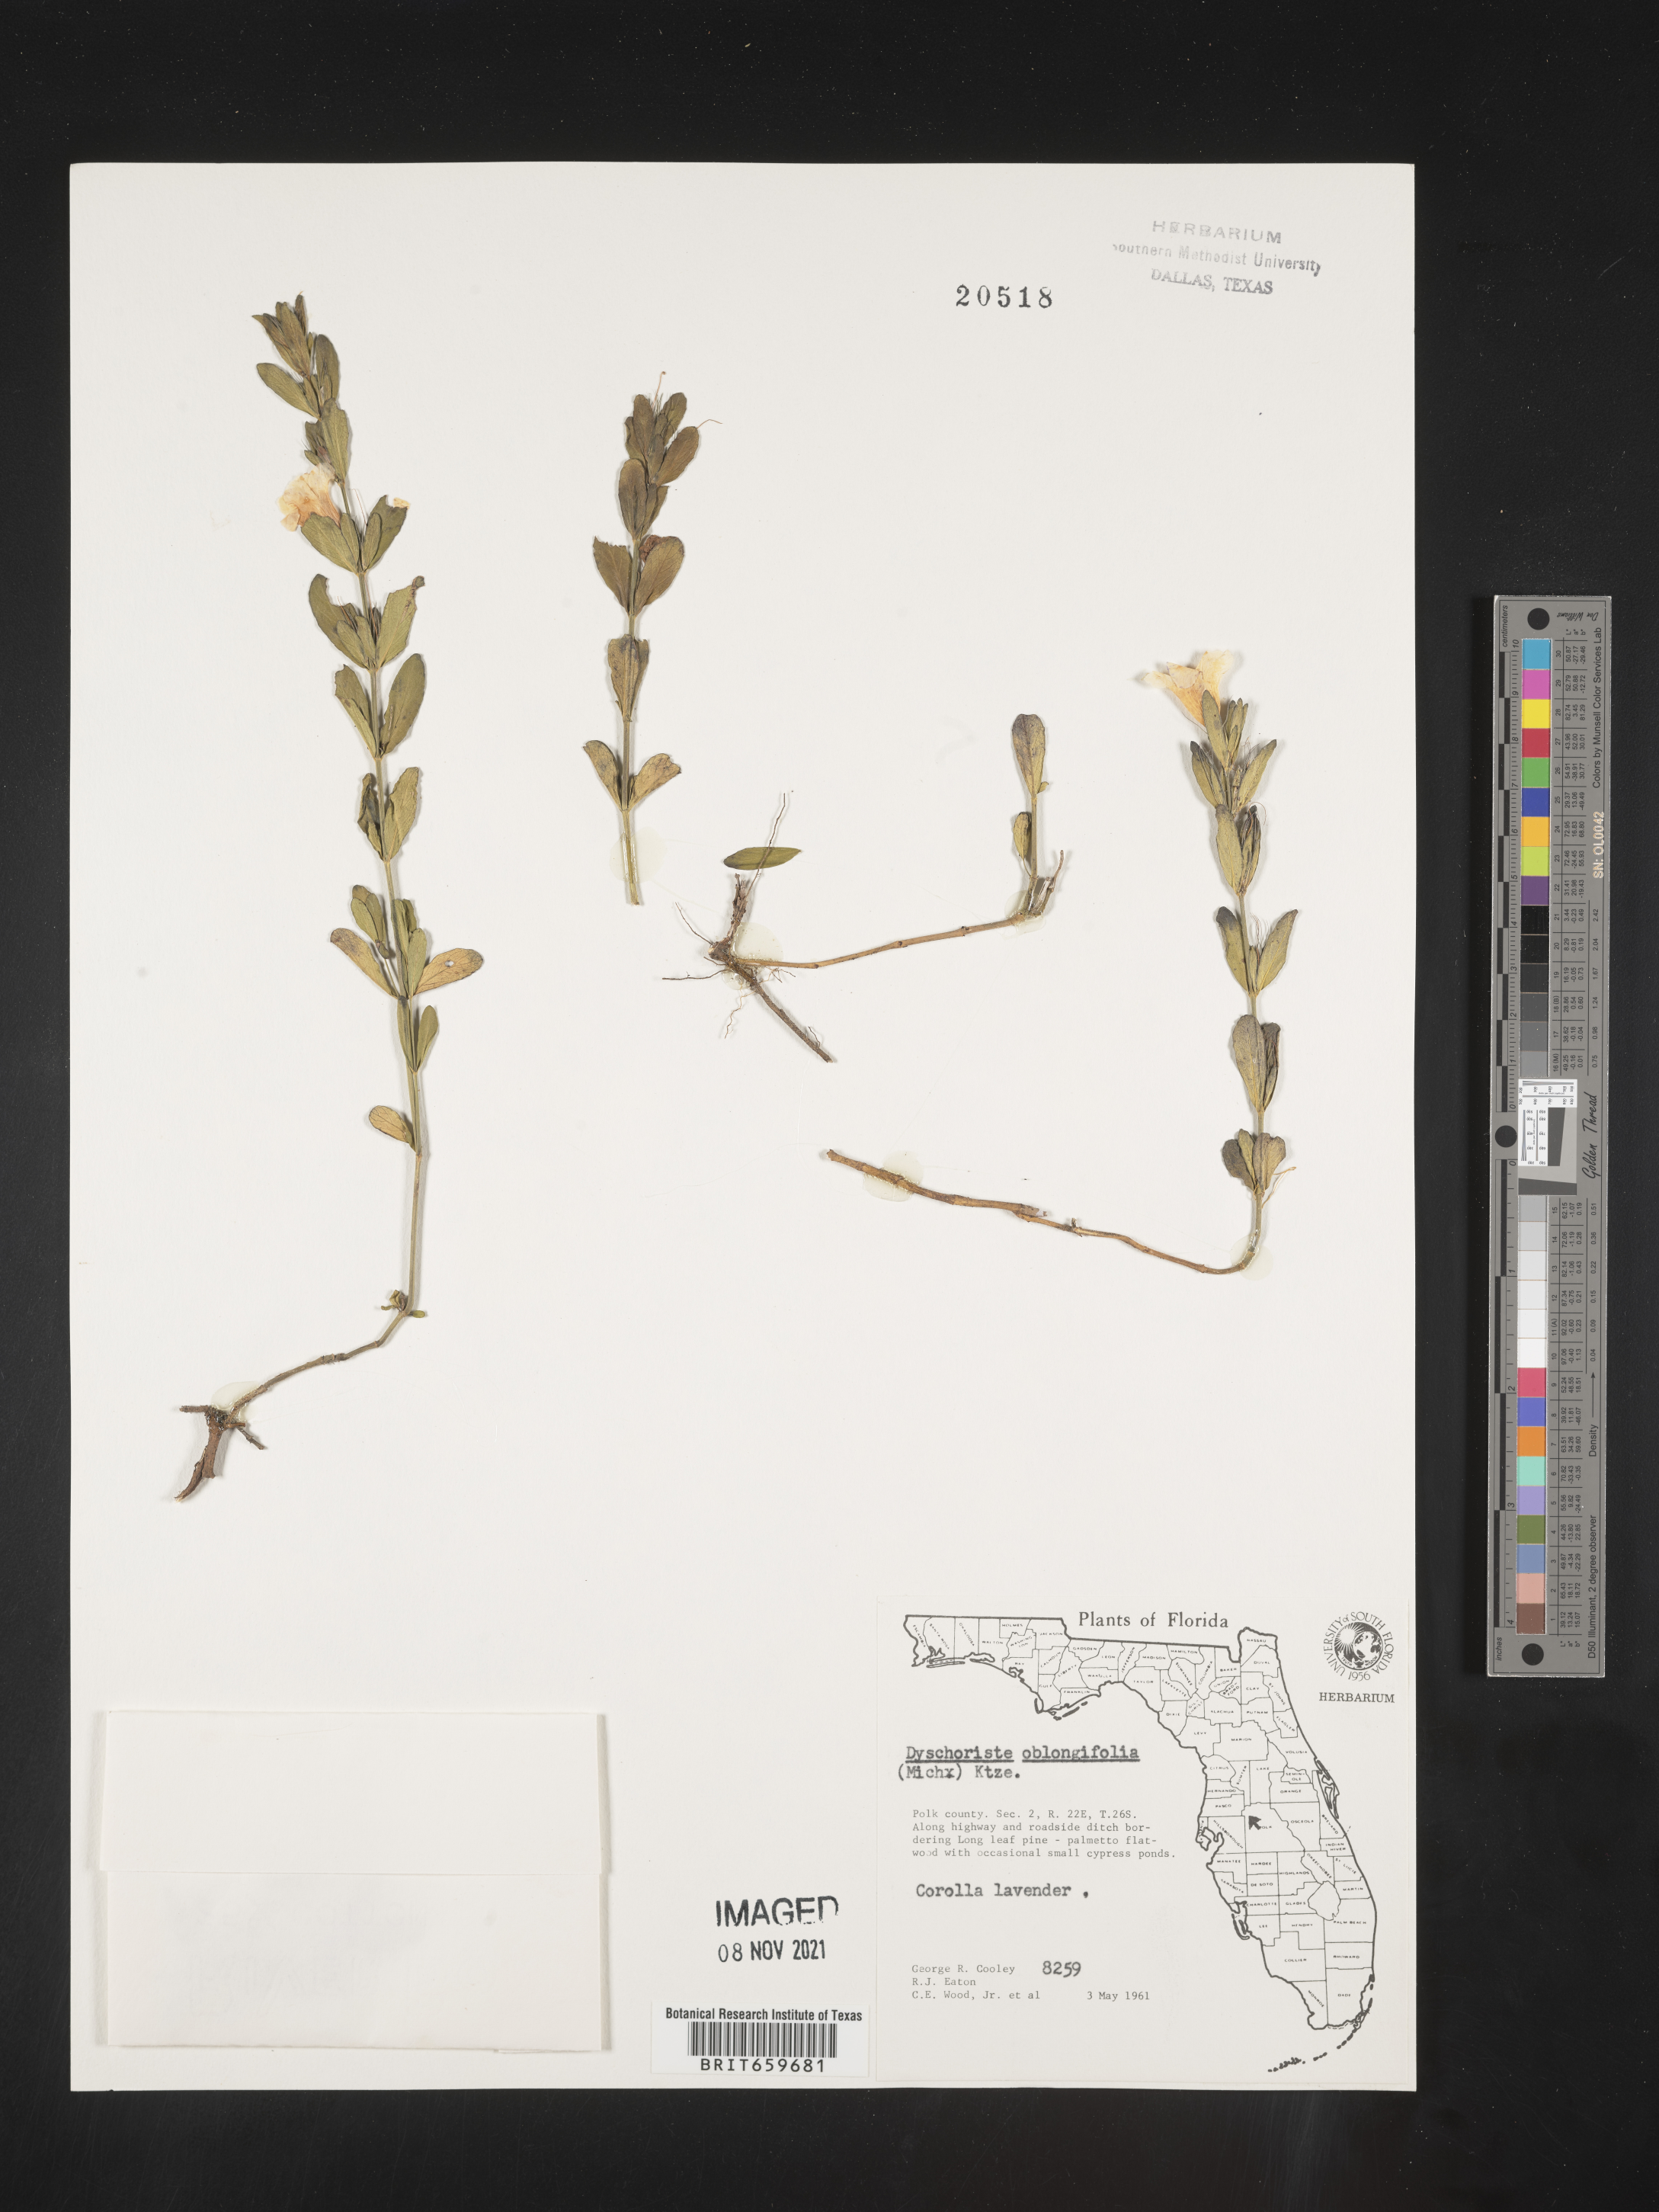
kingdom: Plantae
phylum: Tracheophyta
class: Magnoliopsida
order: Lamiales
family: Acanthaceae
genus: Dyschoriste
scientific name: Dyschoriste oblongifolia
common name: Blue twinflower
